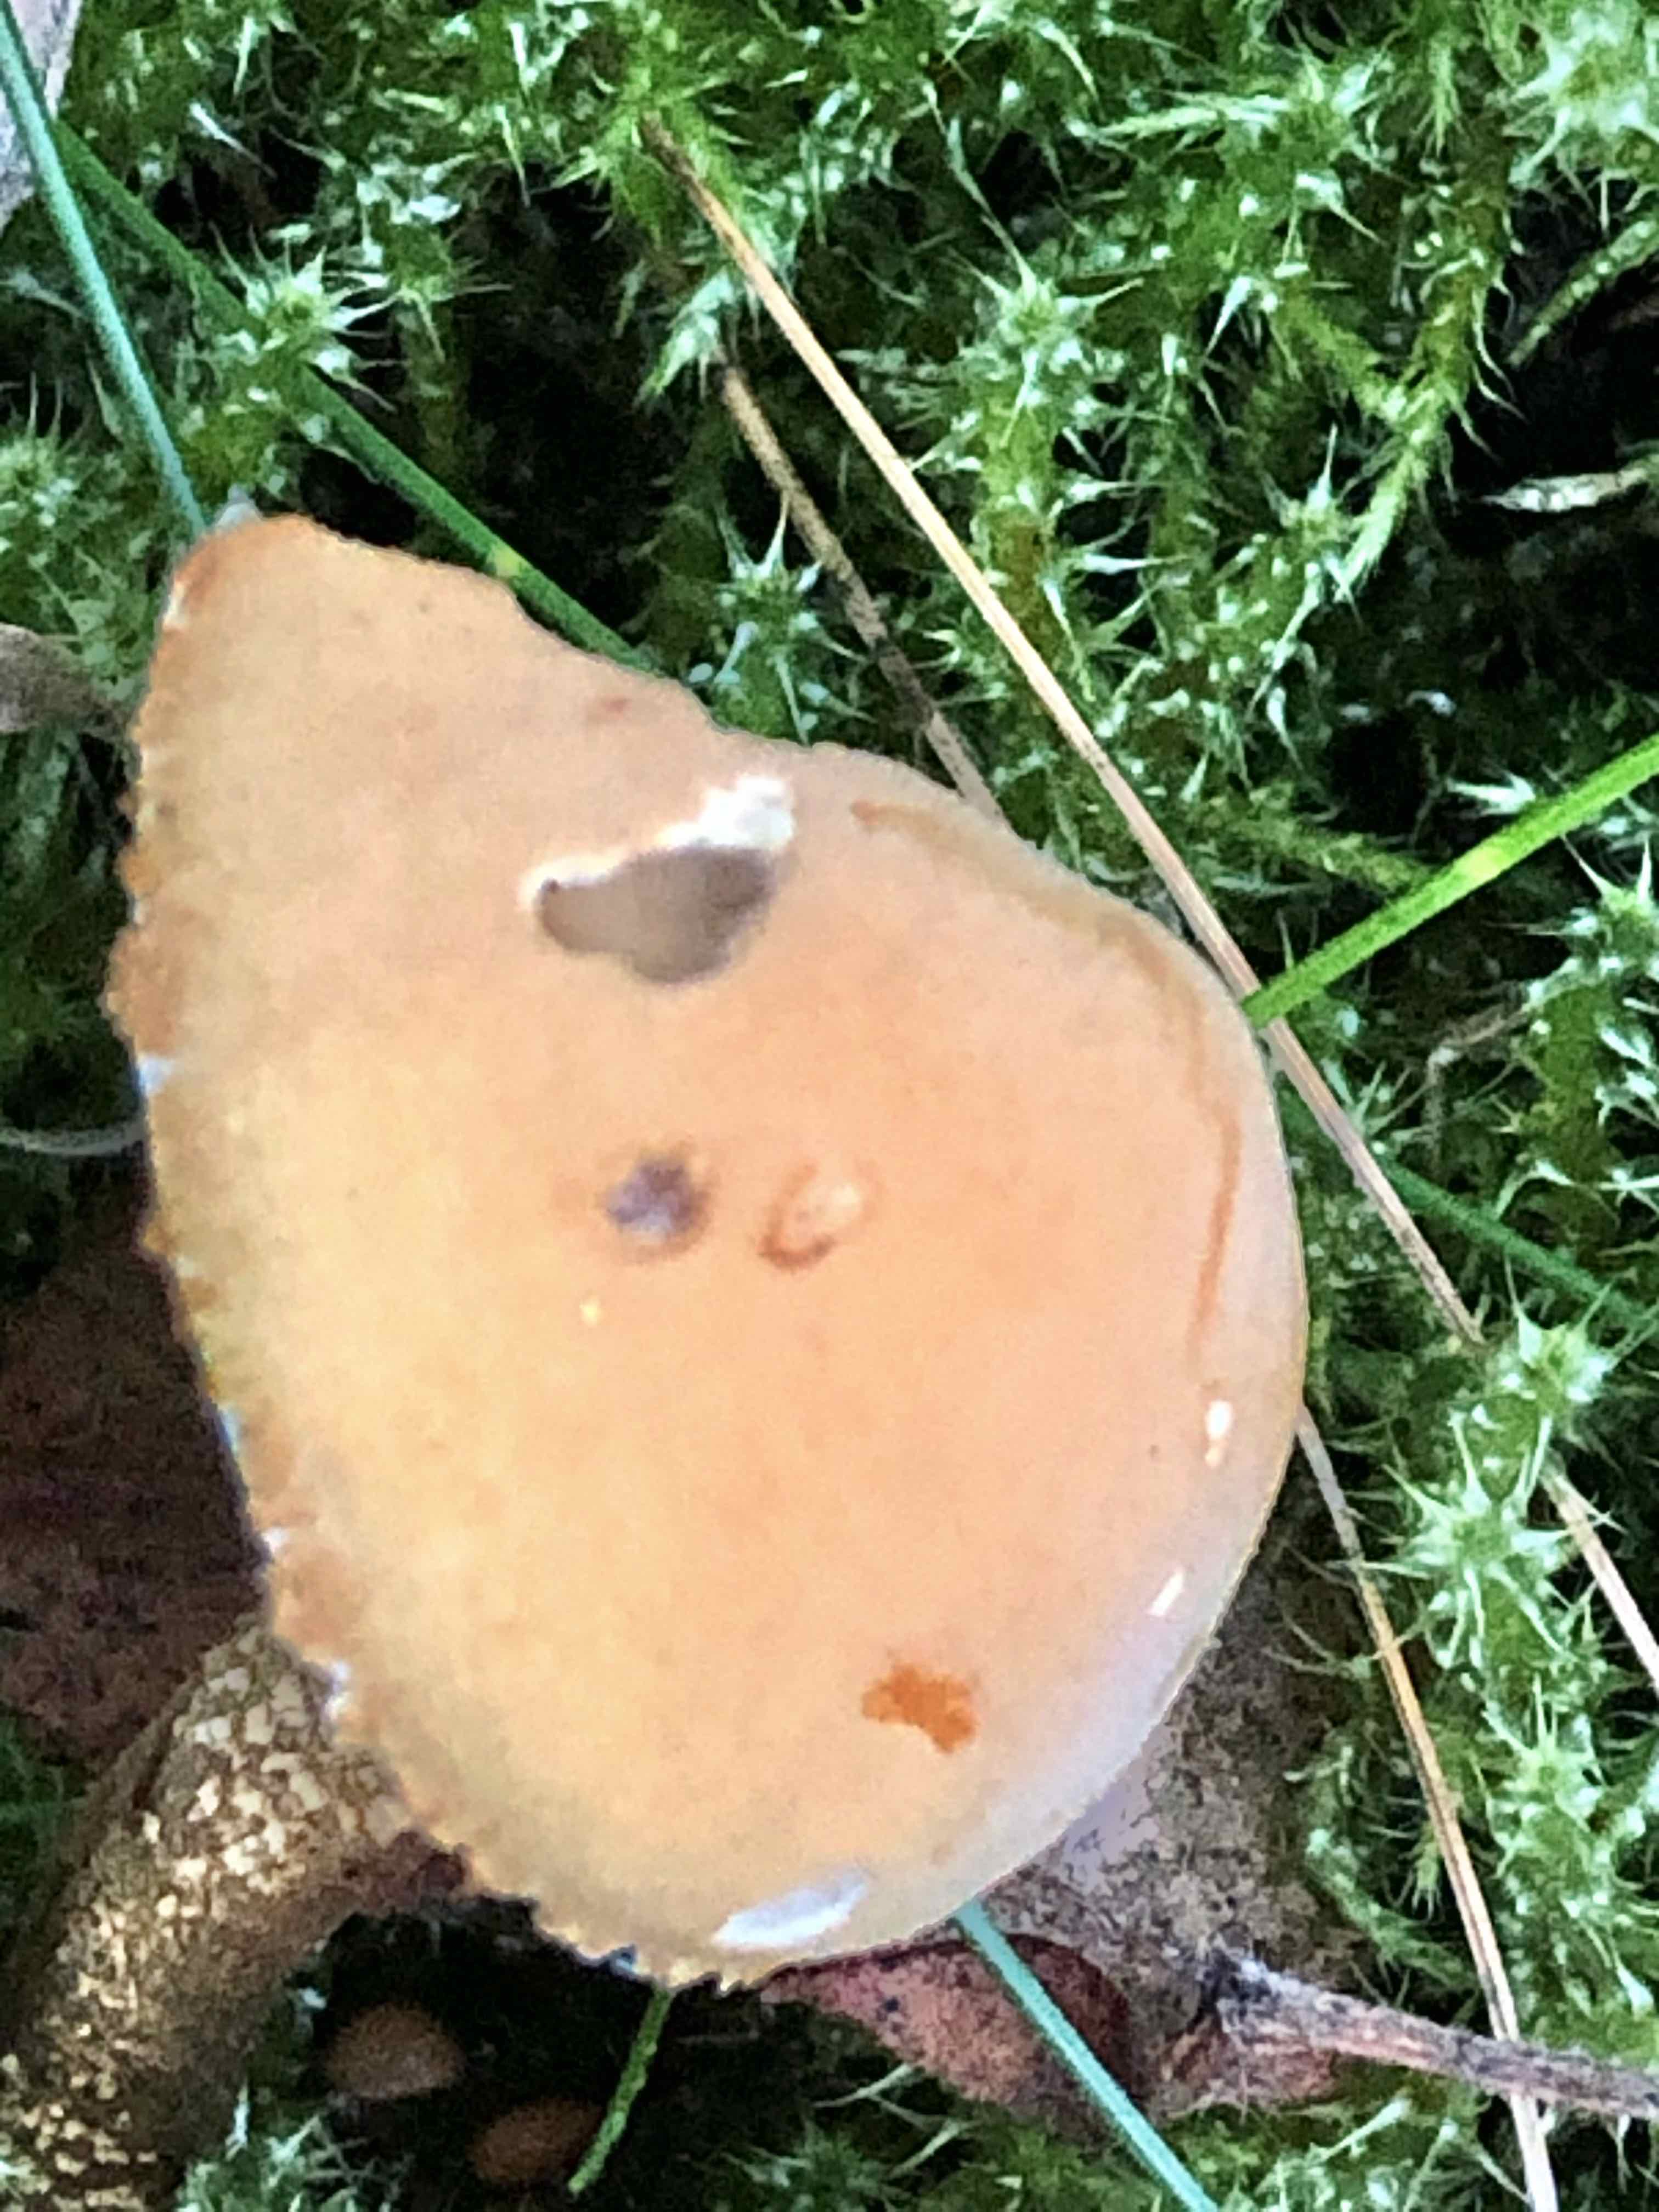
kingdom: Fungi
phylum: Basidiomycota
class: Agaricomycetes
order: Agaricales
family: Tricholomataceae
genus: Cystoderma
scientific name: Cystoderma amianthinum
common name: okkergul grynhat
